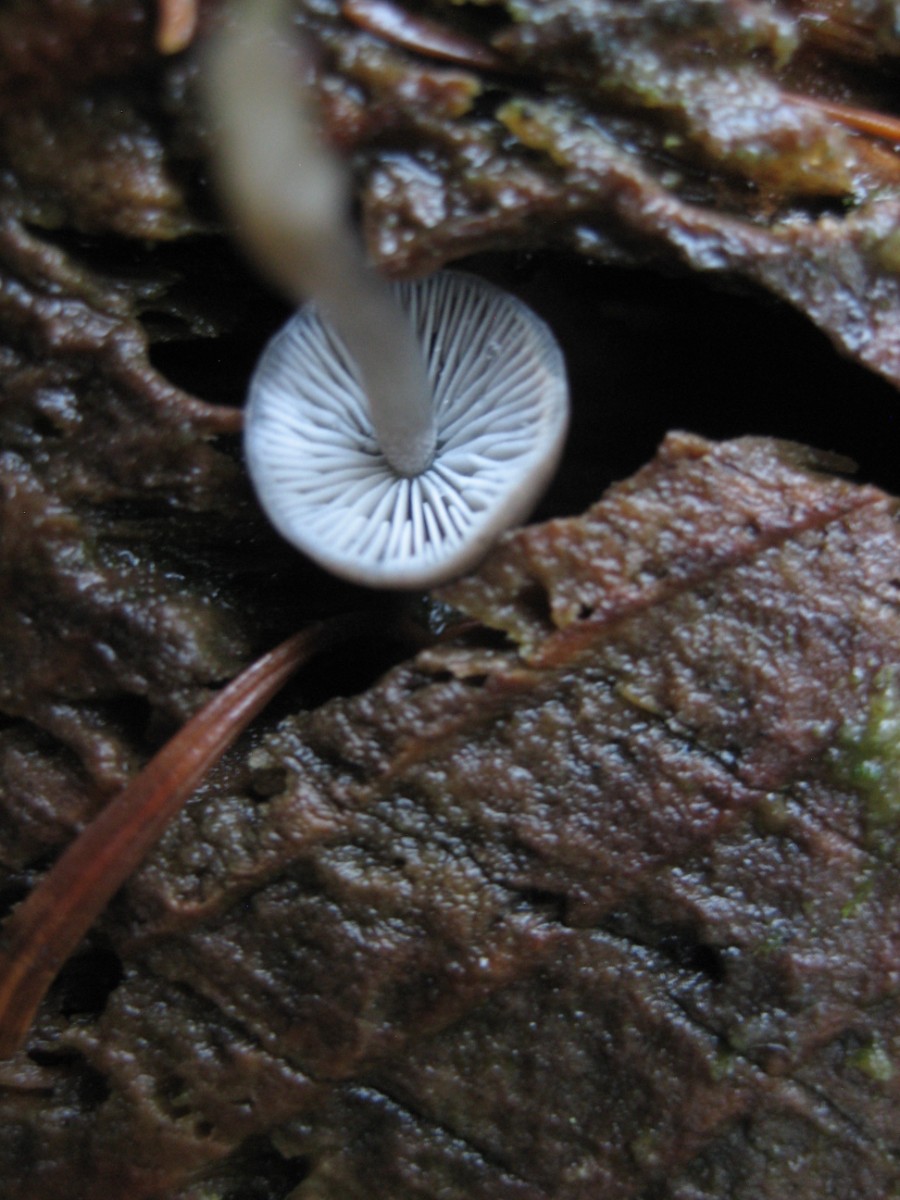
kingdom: Fungi
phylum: Basidiomycota
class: Agaricomycetes
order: Agaricales
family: Mycenaceae
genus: Mycena
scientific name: Mycena tintinnabulum
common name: vinter-huesvamp
